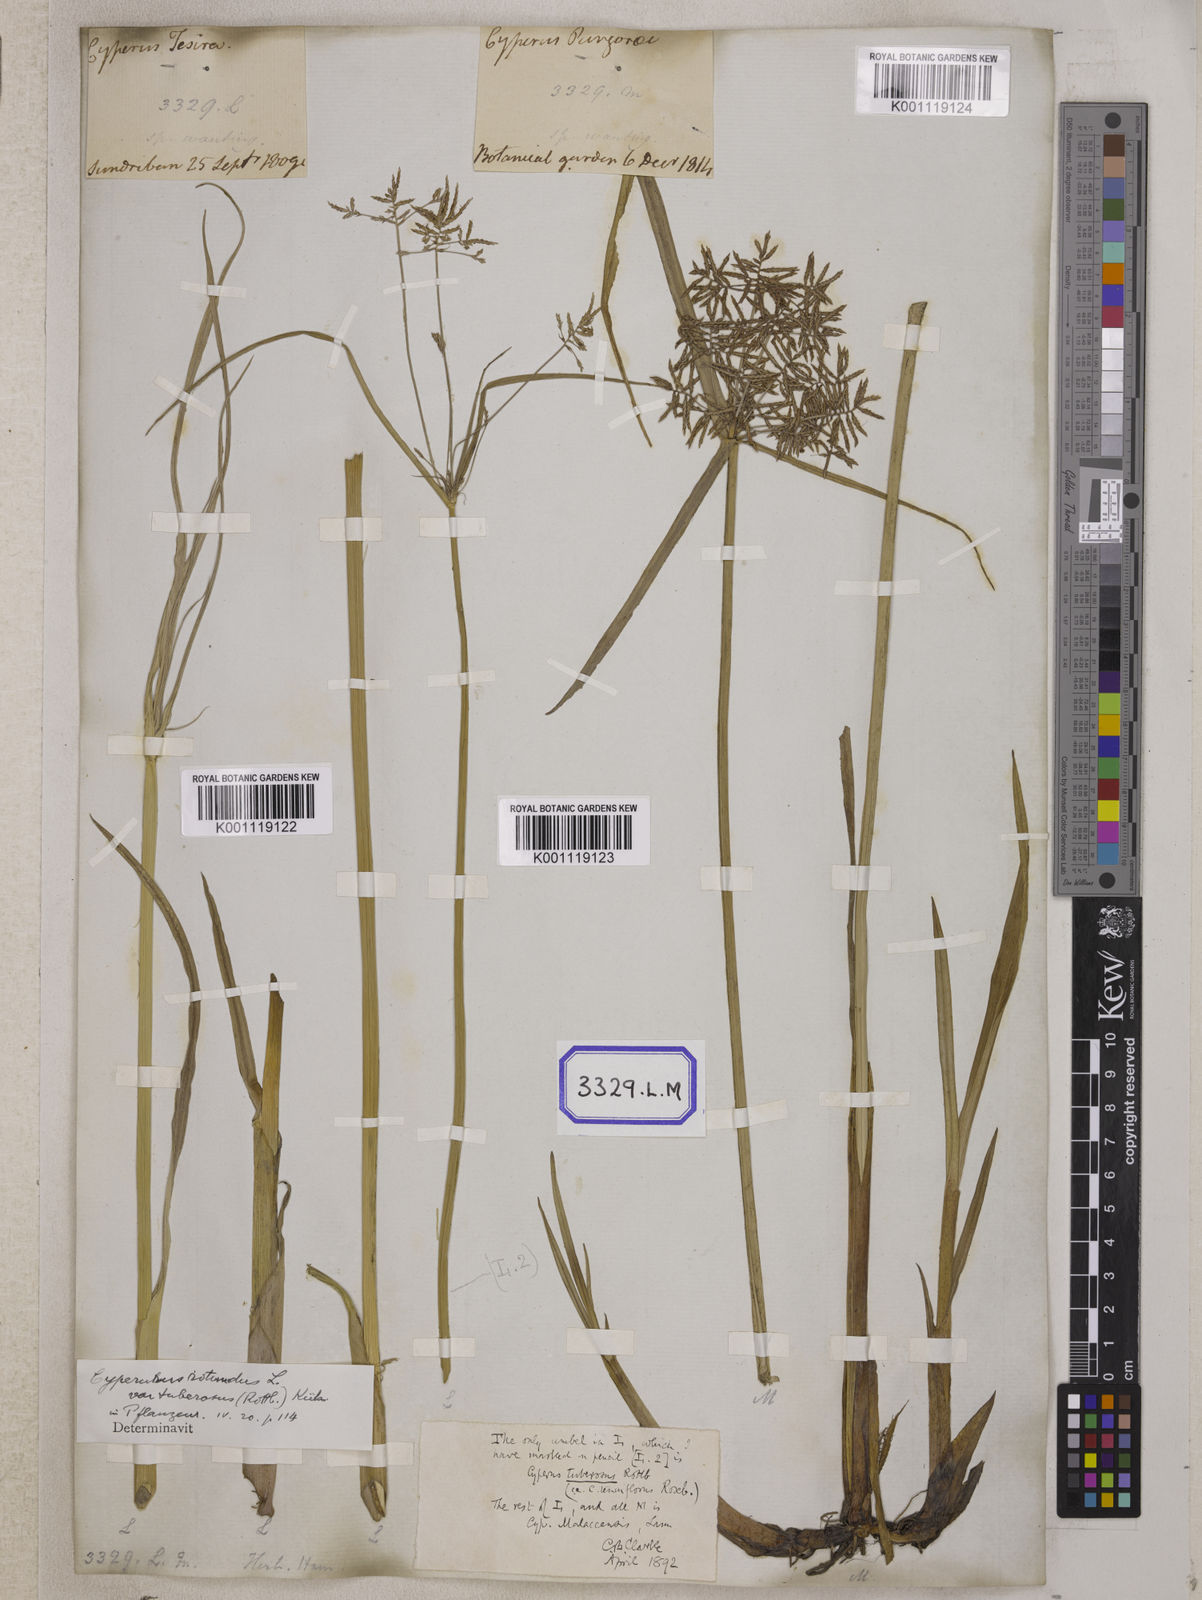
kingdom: Plantae
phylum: Tracheophyta
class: Liliopsida
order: Poales
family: Cyperaceae
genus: Cyperus
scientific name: Cyperus
